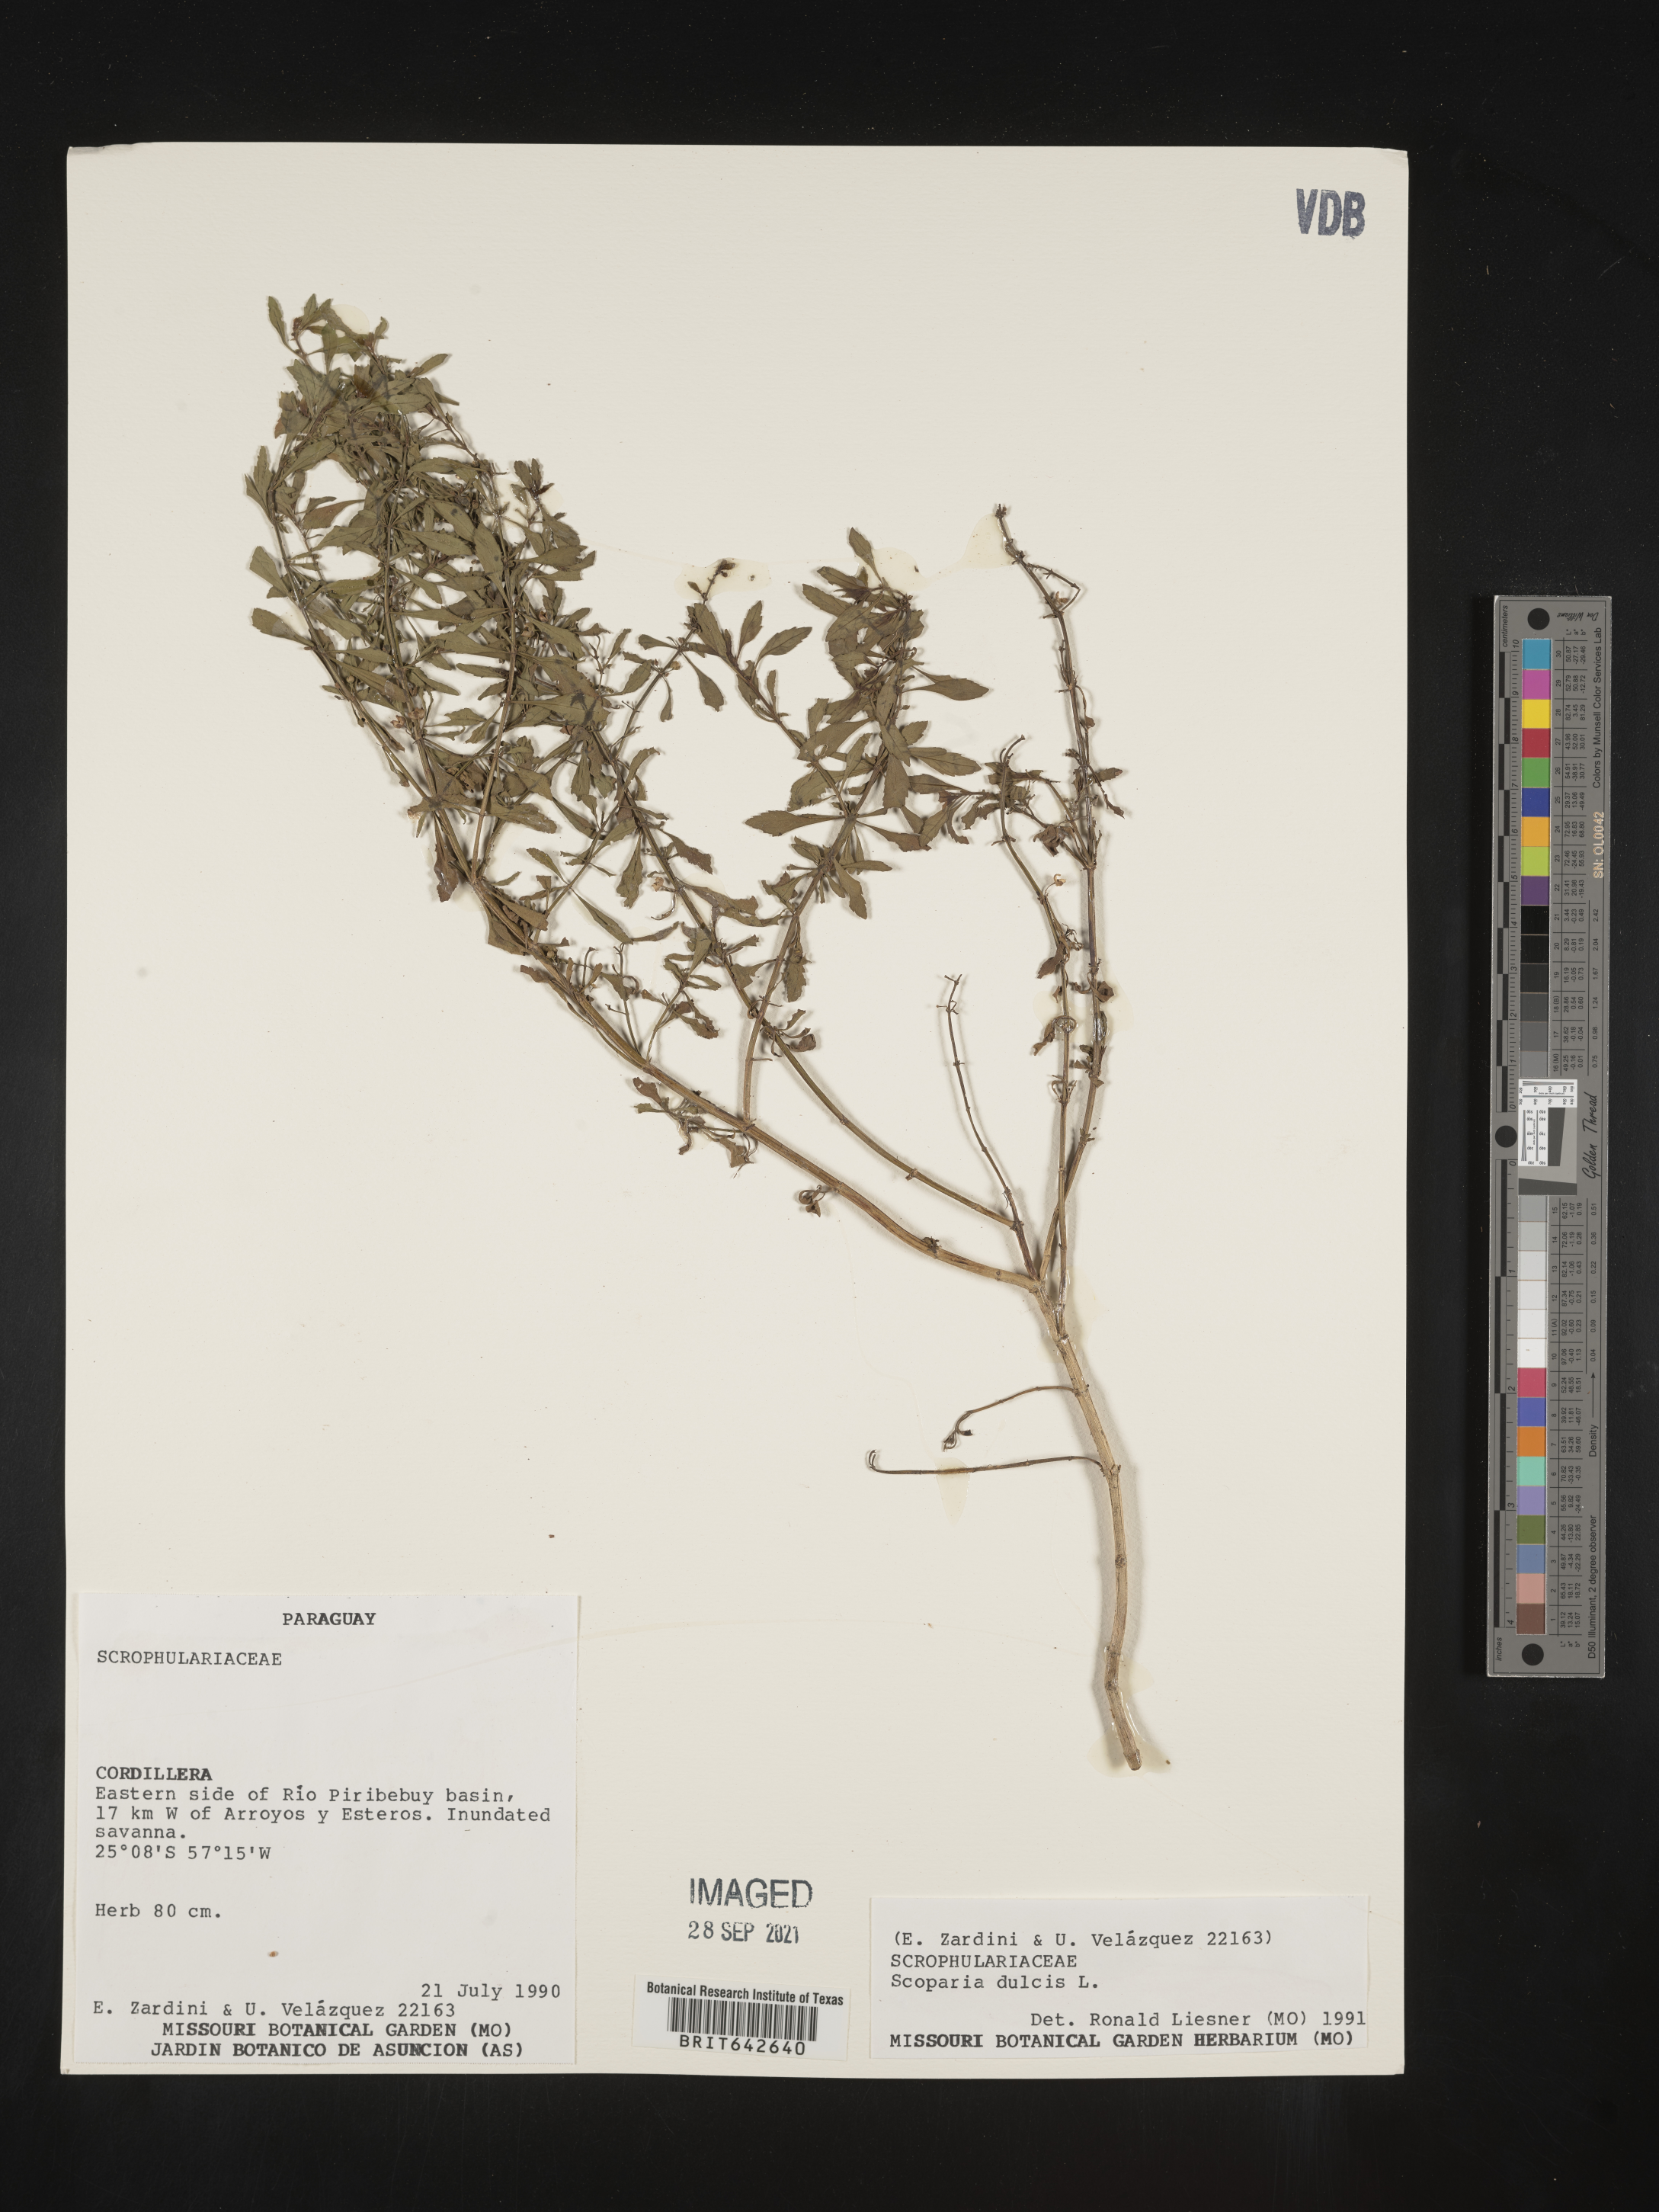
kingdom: Plantae
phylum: Tracheophyta
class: Magnoliopsida
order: Lamiales
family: Plantaginaceae
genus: Scoparia
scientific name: Scoparia
